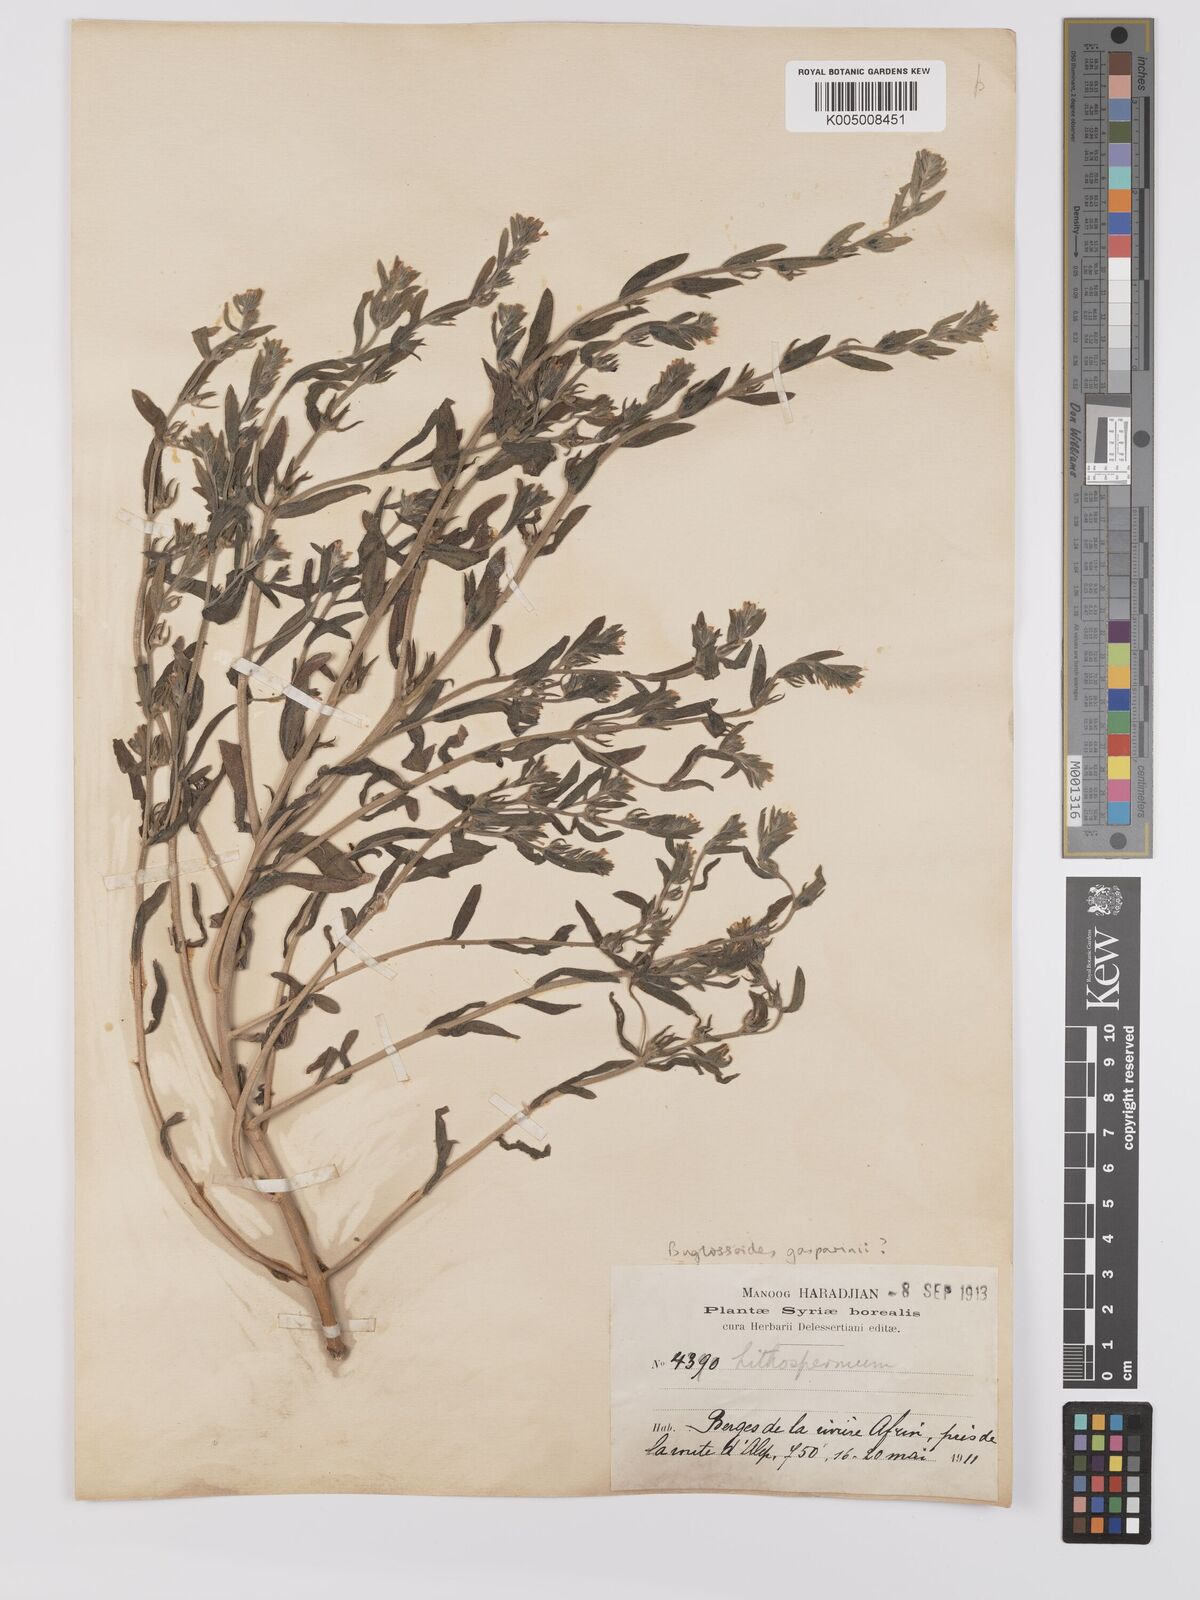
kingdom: Plantae
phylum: Tracheophyta
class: Magnoliopsida
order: Boraginales
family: Boraginaceae
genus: Buglossoides
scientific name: Buglossoides incrassata
